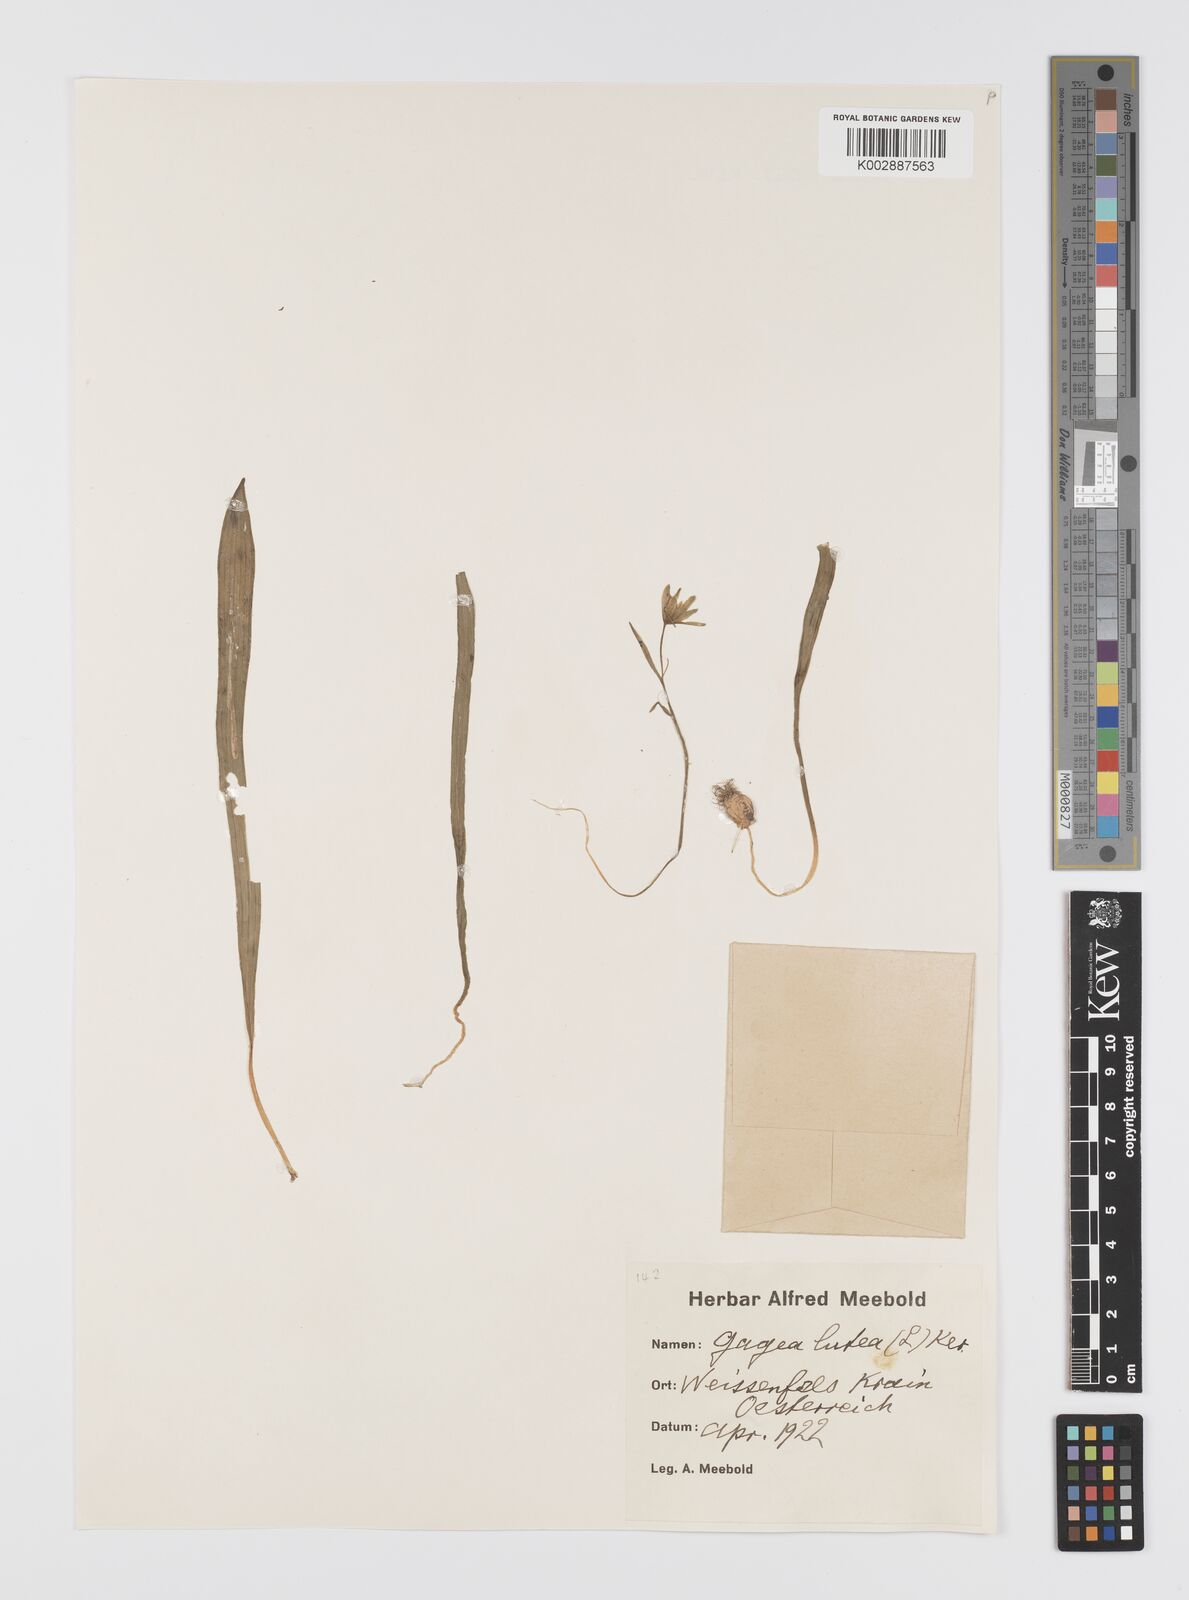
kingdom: Plantae
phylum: Tracheophyta
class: Liliopsida
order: Liliales
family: Liliaceae
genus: Gagea
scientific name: Gagea lutea
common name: Yellow star-of-bethlehem
